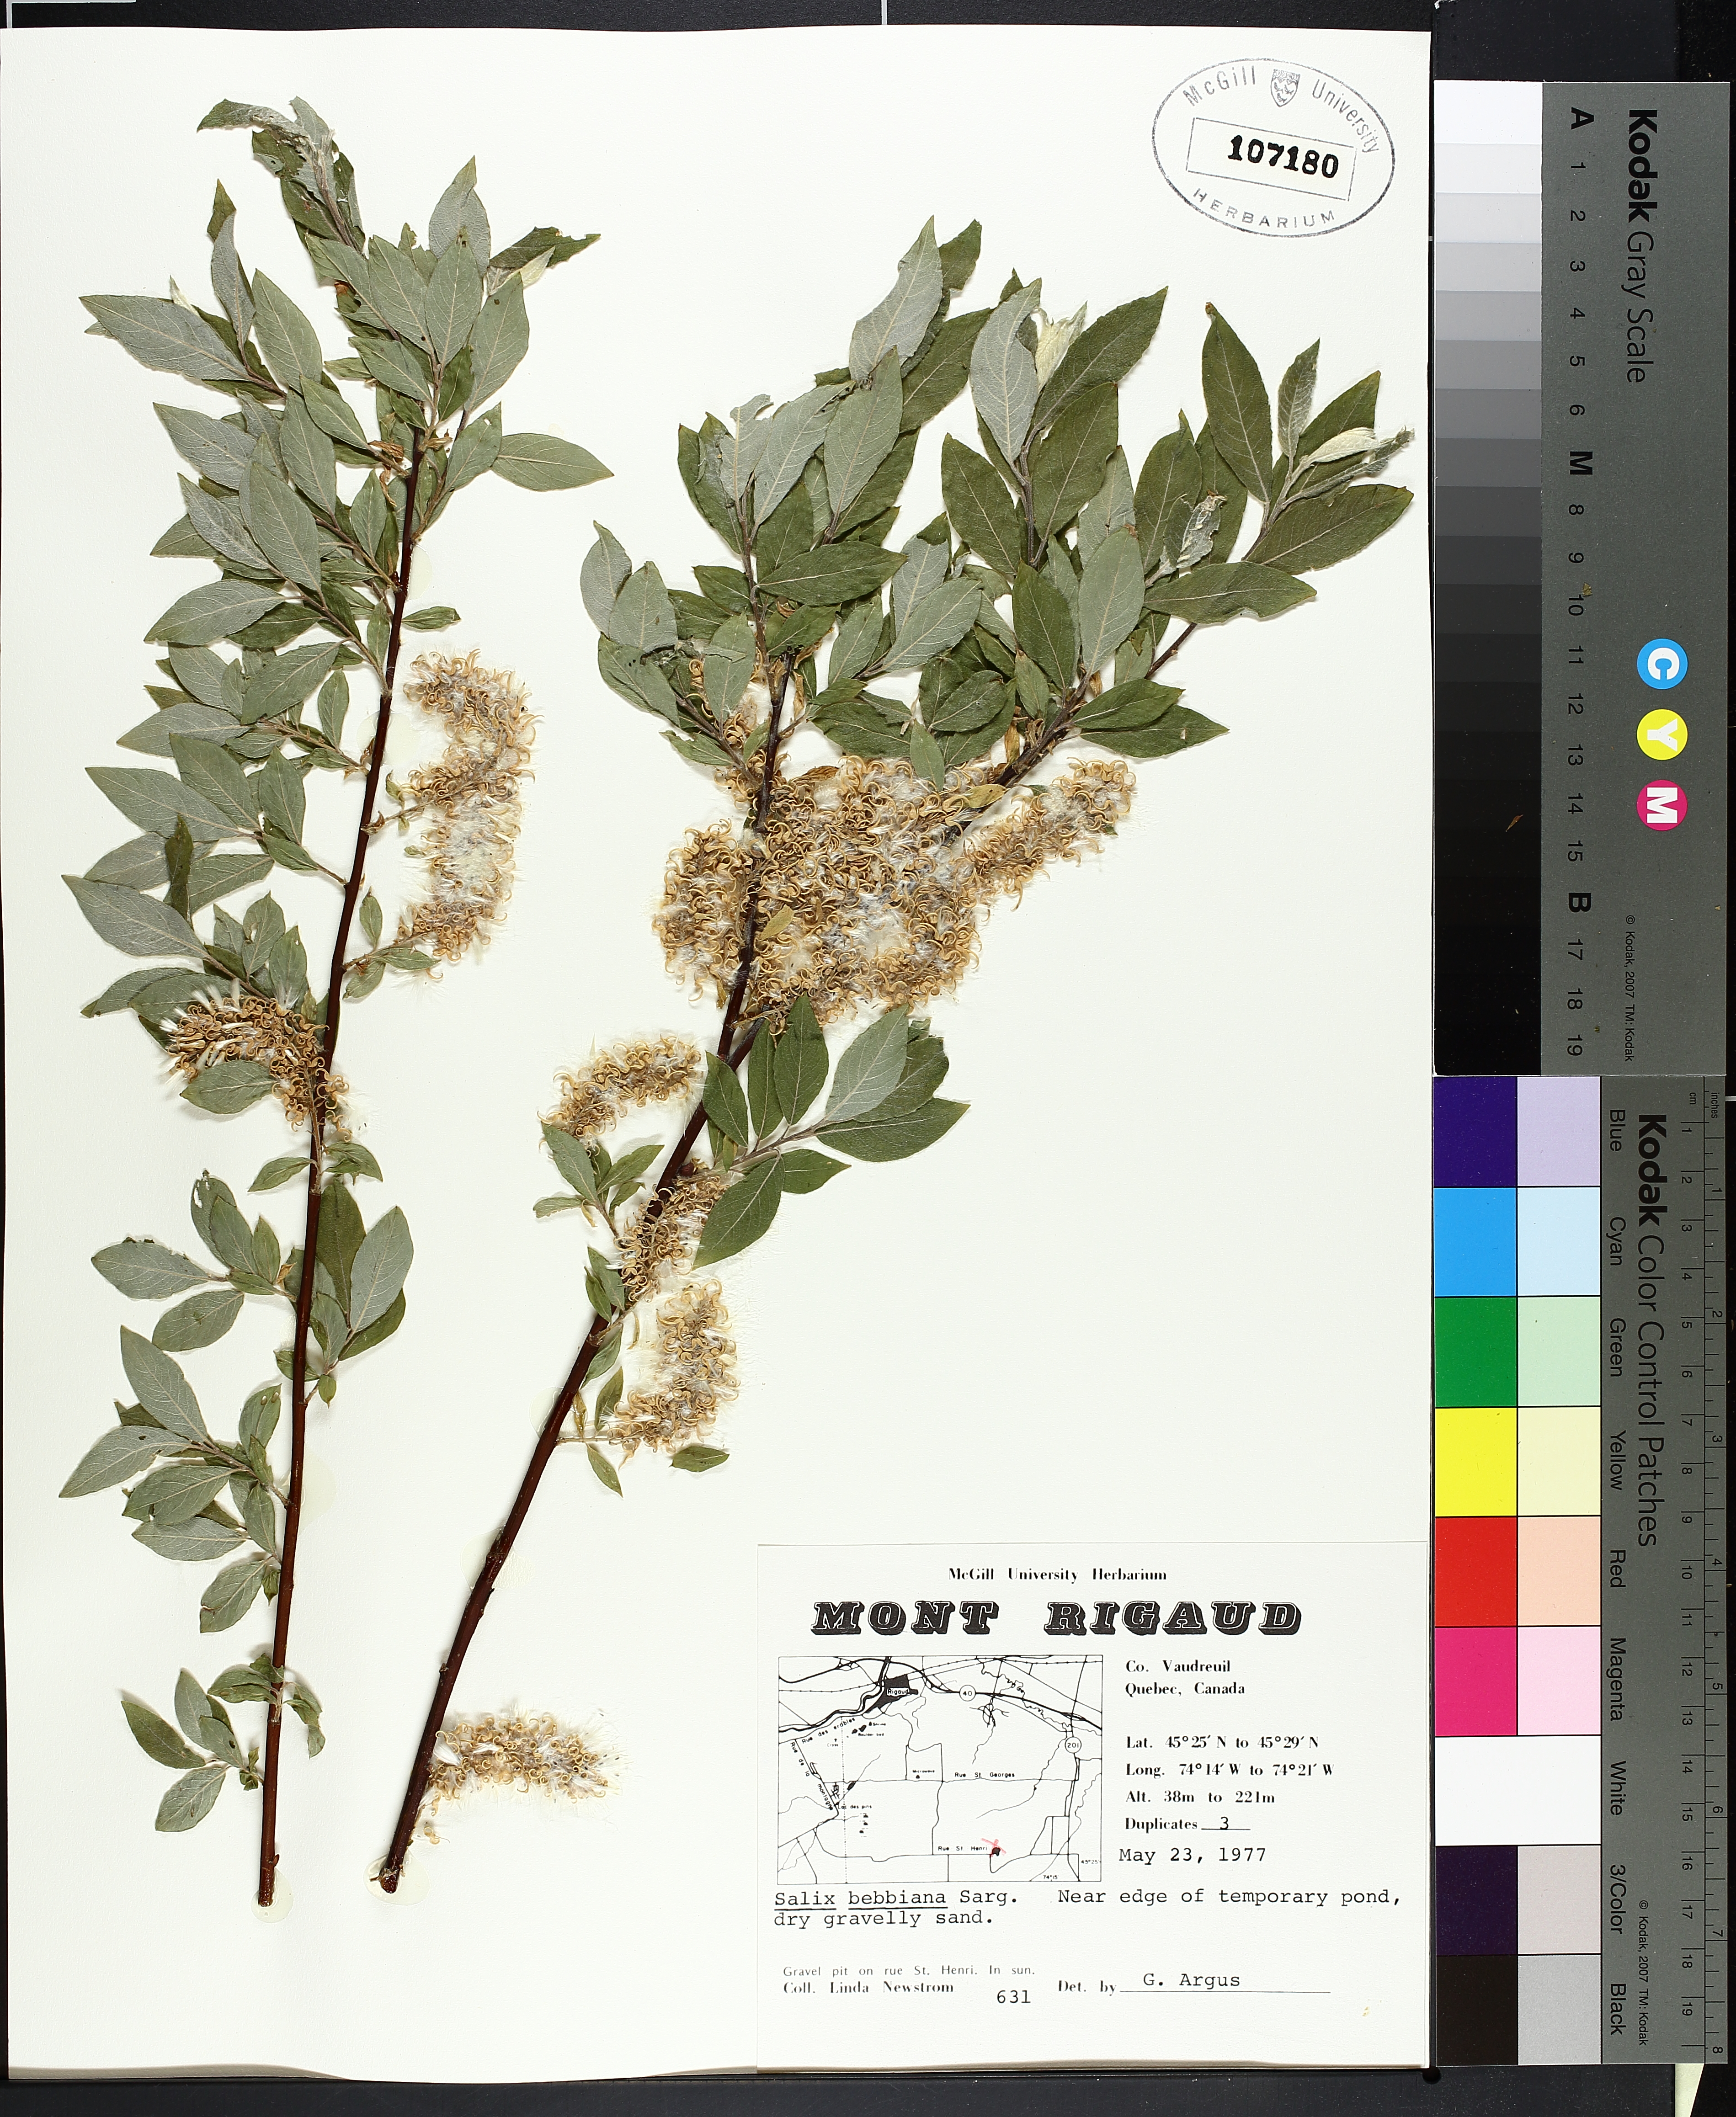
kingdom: Plantae
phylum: Tracheophyta
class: Magnoliopsida
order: Lamiales
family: Lamiaceae
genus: Clinopodium
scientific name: Clinopodium vulgare
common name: Wild basil
